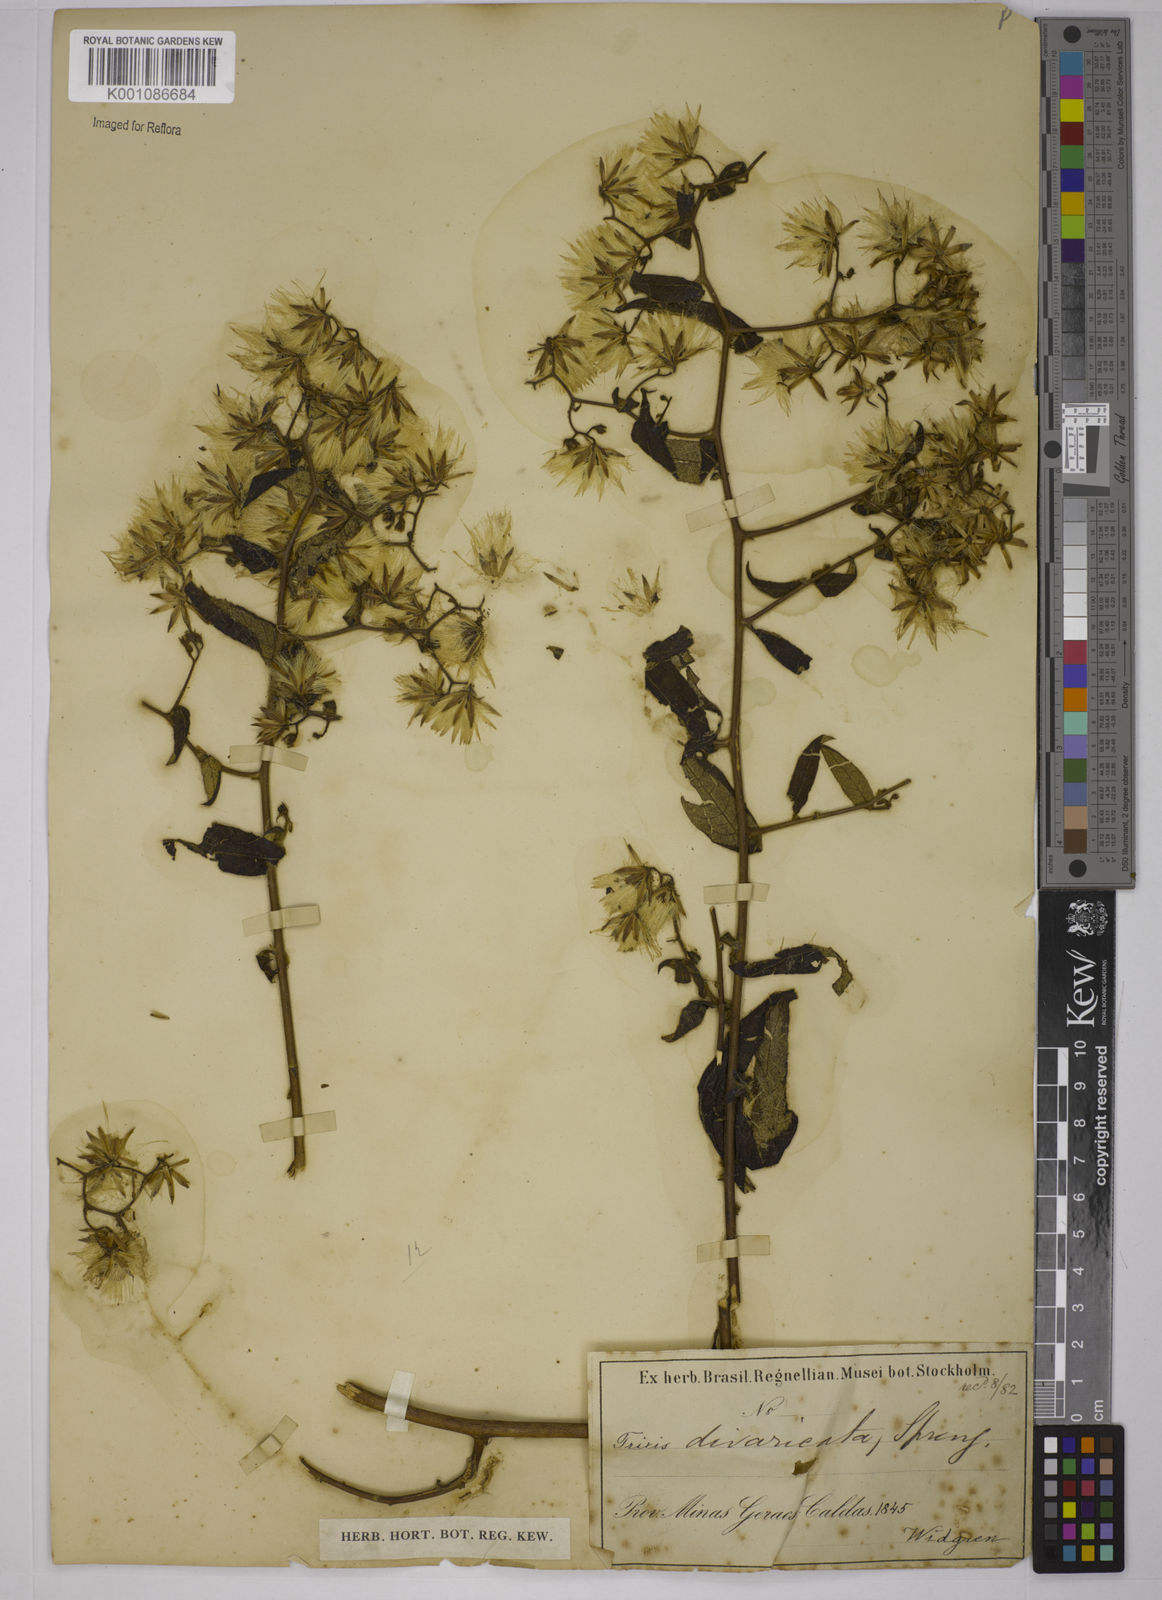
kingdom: Plantae
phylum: Tracheophyta
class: Magnoliopsida
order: Asterales
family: Asteraceae
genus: Trixis
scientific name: Trixis divaricata
